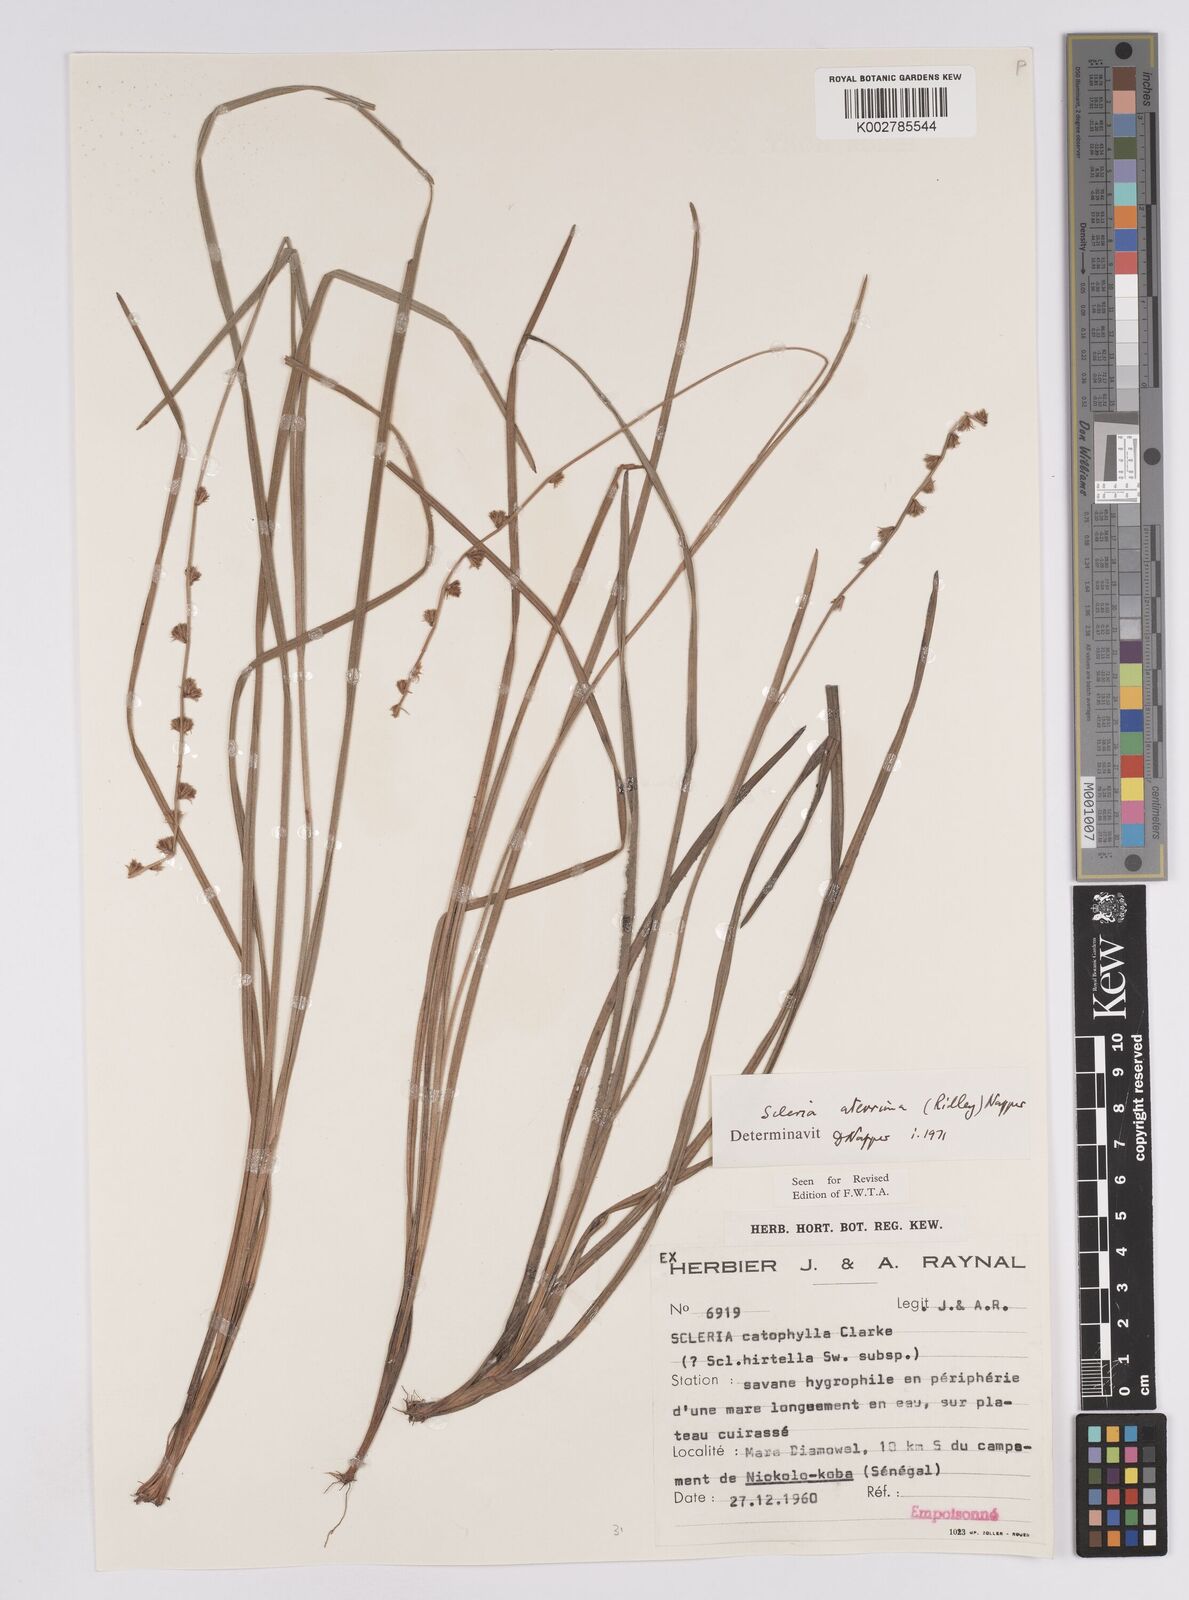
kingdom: Plantae
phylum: Tracheophyta
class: Liliopsida
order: Poales
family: Cyperaceae
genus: Scleria
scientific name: Scleria catophylla
